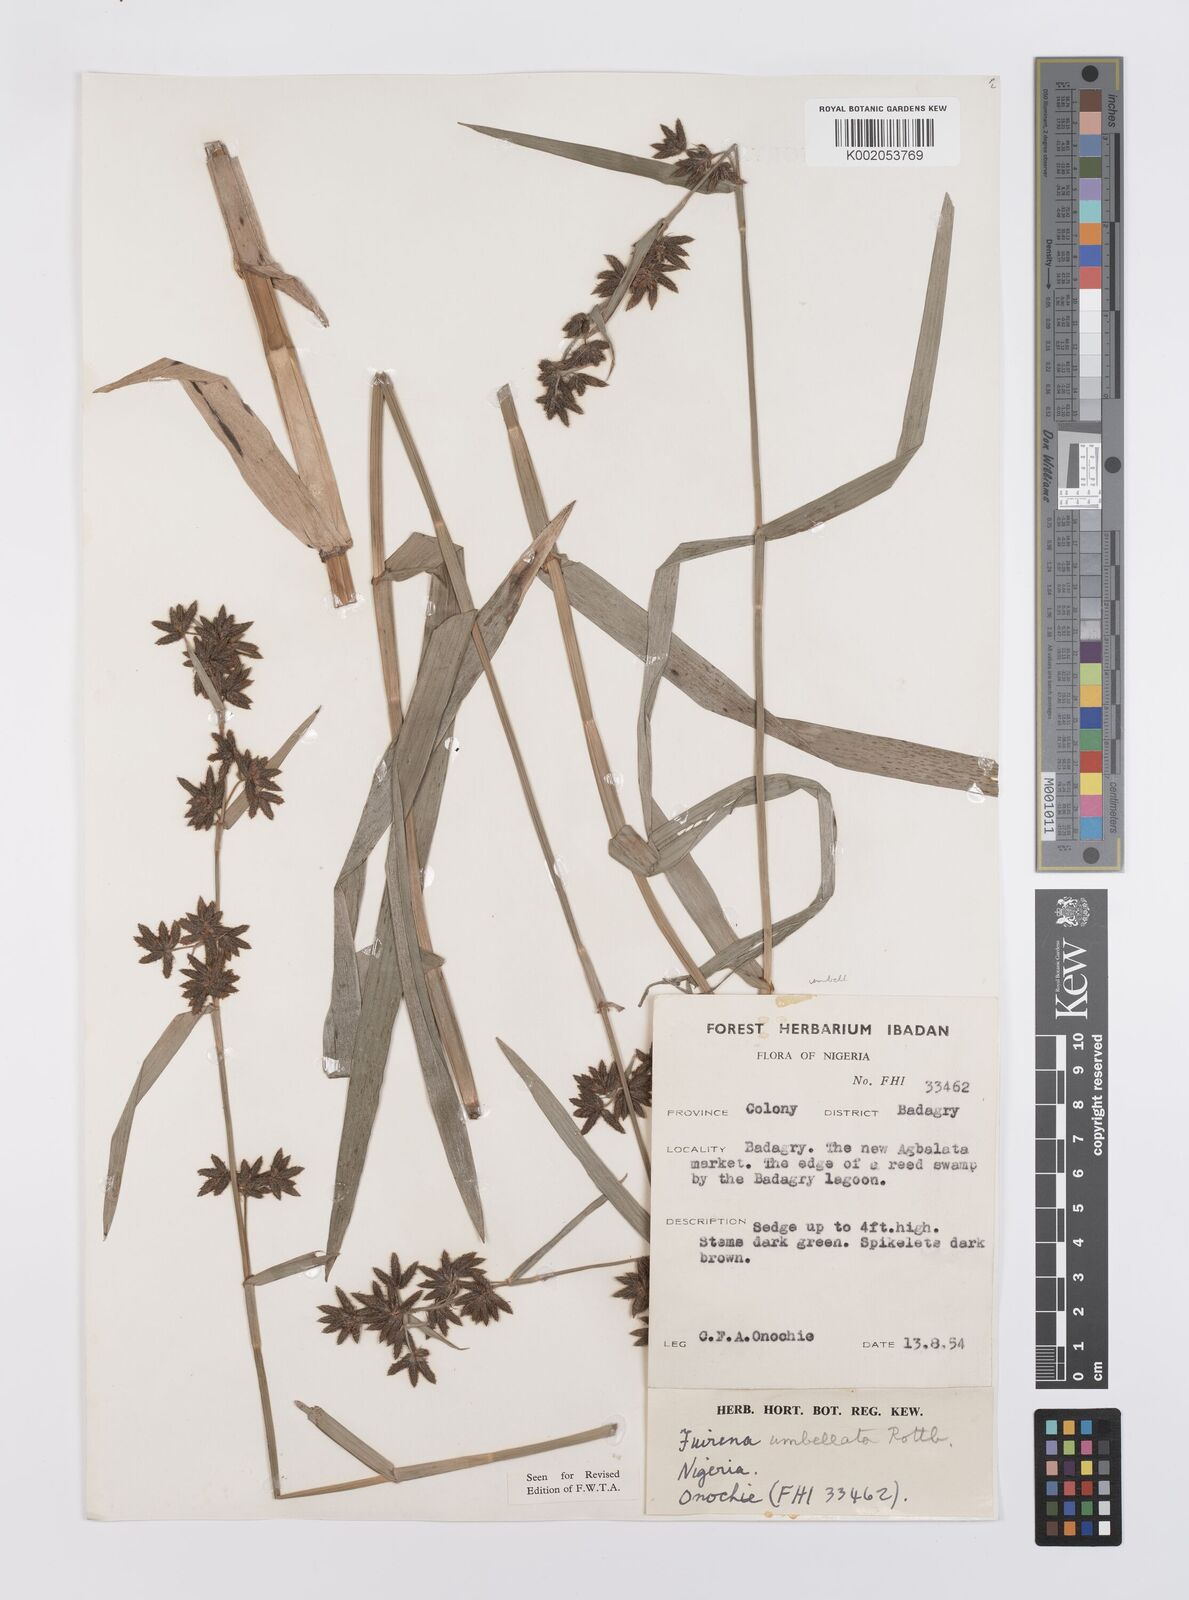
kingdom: Plantae
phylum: Tracheophyta
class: Liliopsida
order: Poales
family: Cyperaceae
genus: Fuirena
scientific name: Fuirena umbellata
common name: Yefen
